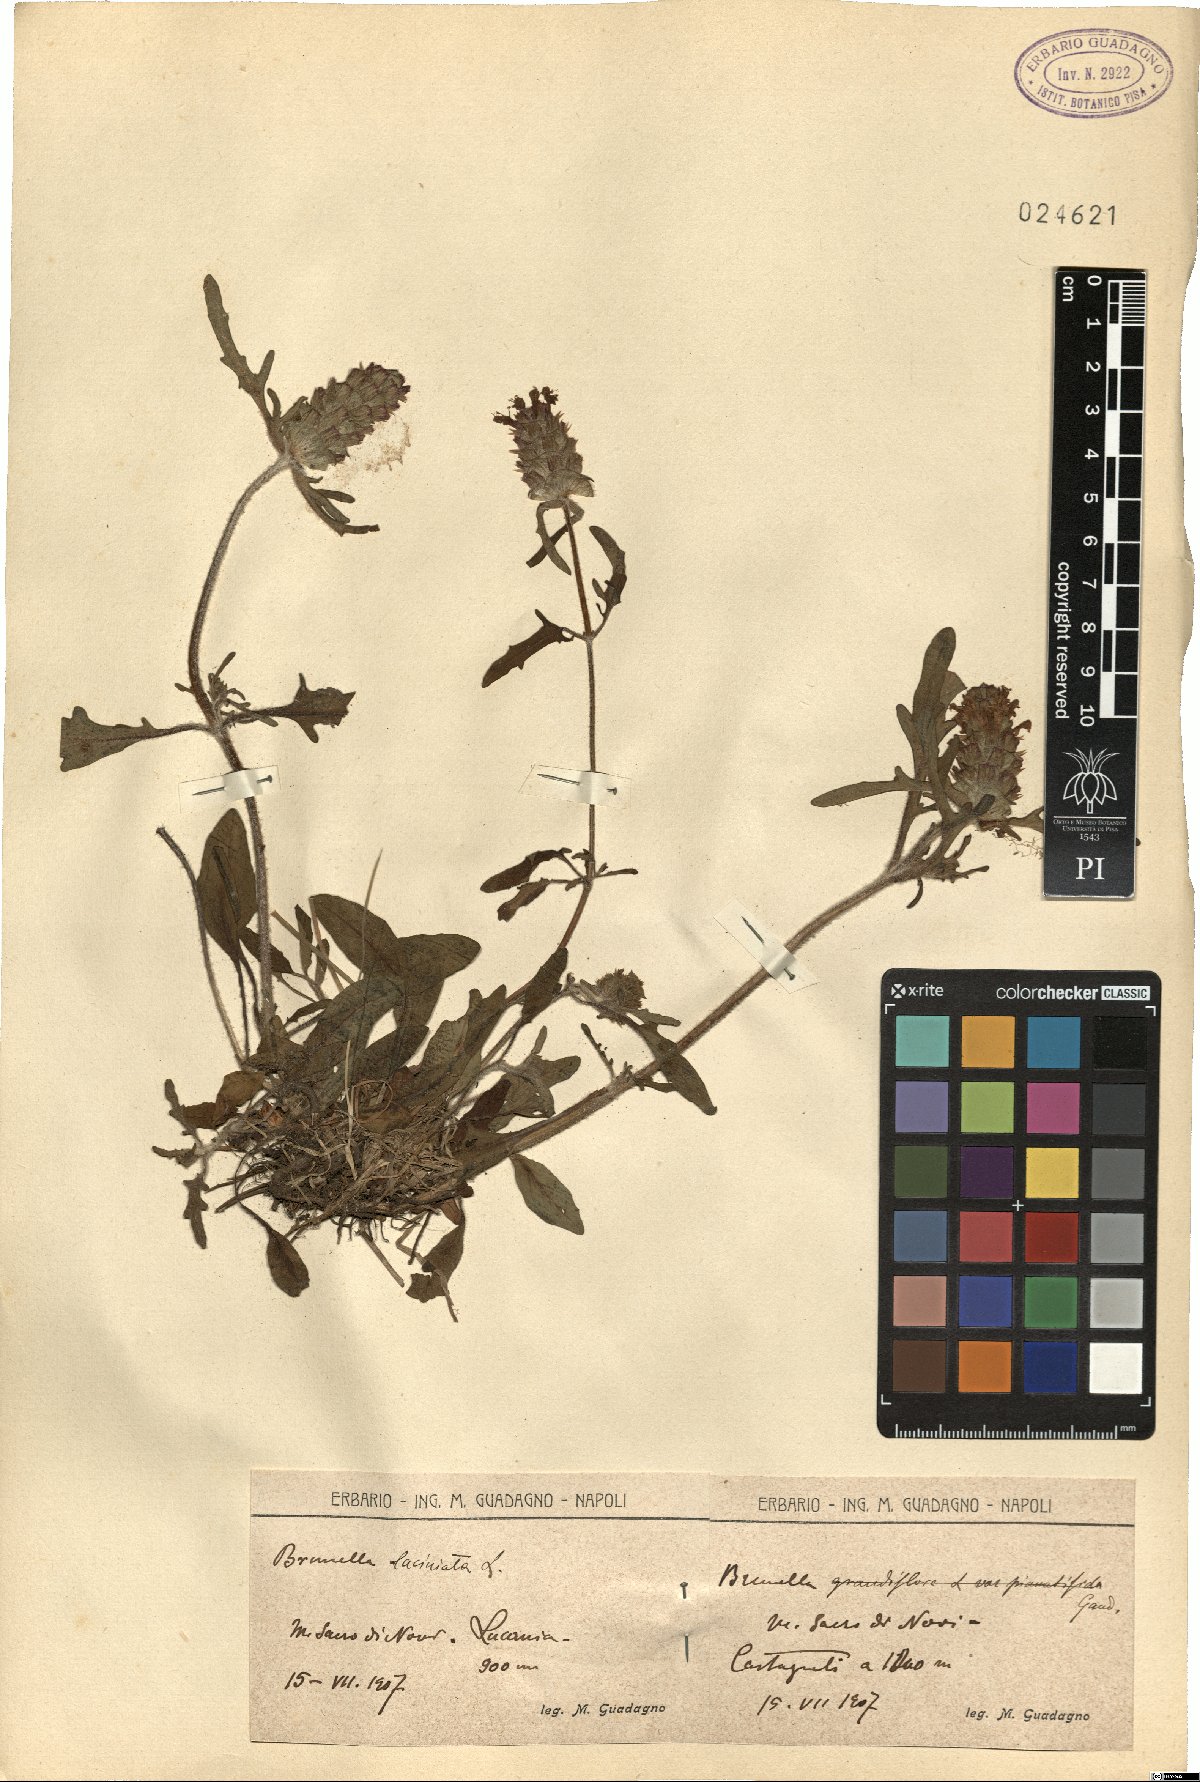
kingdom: Plantae
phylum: Tracheophyta
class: Magnoliopsida
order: Lamiales
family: Lamiaceae
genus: Prunella
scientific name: Prunella laciniata
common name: Cut-leaved selfheal
